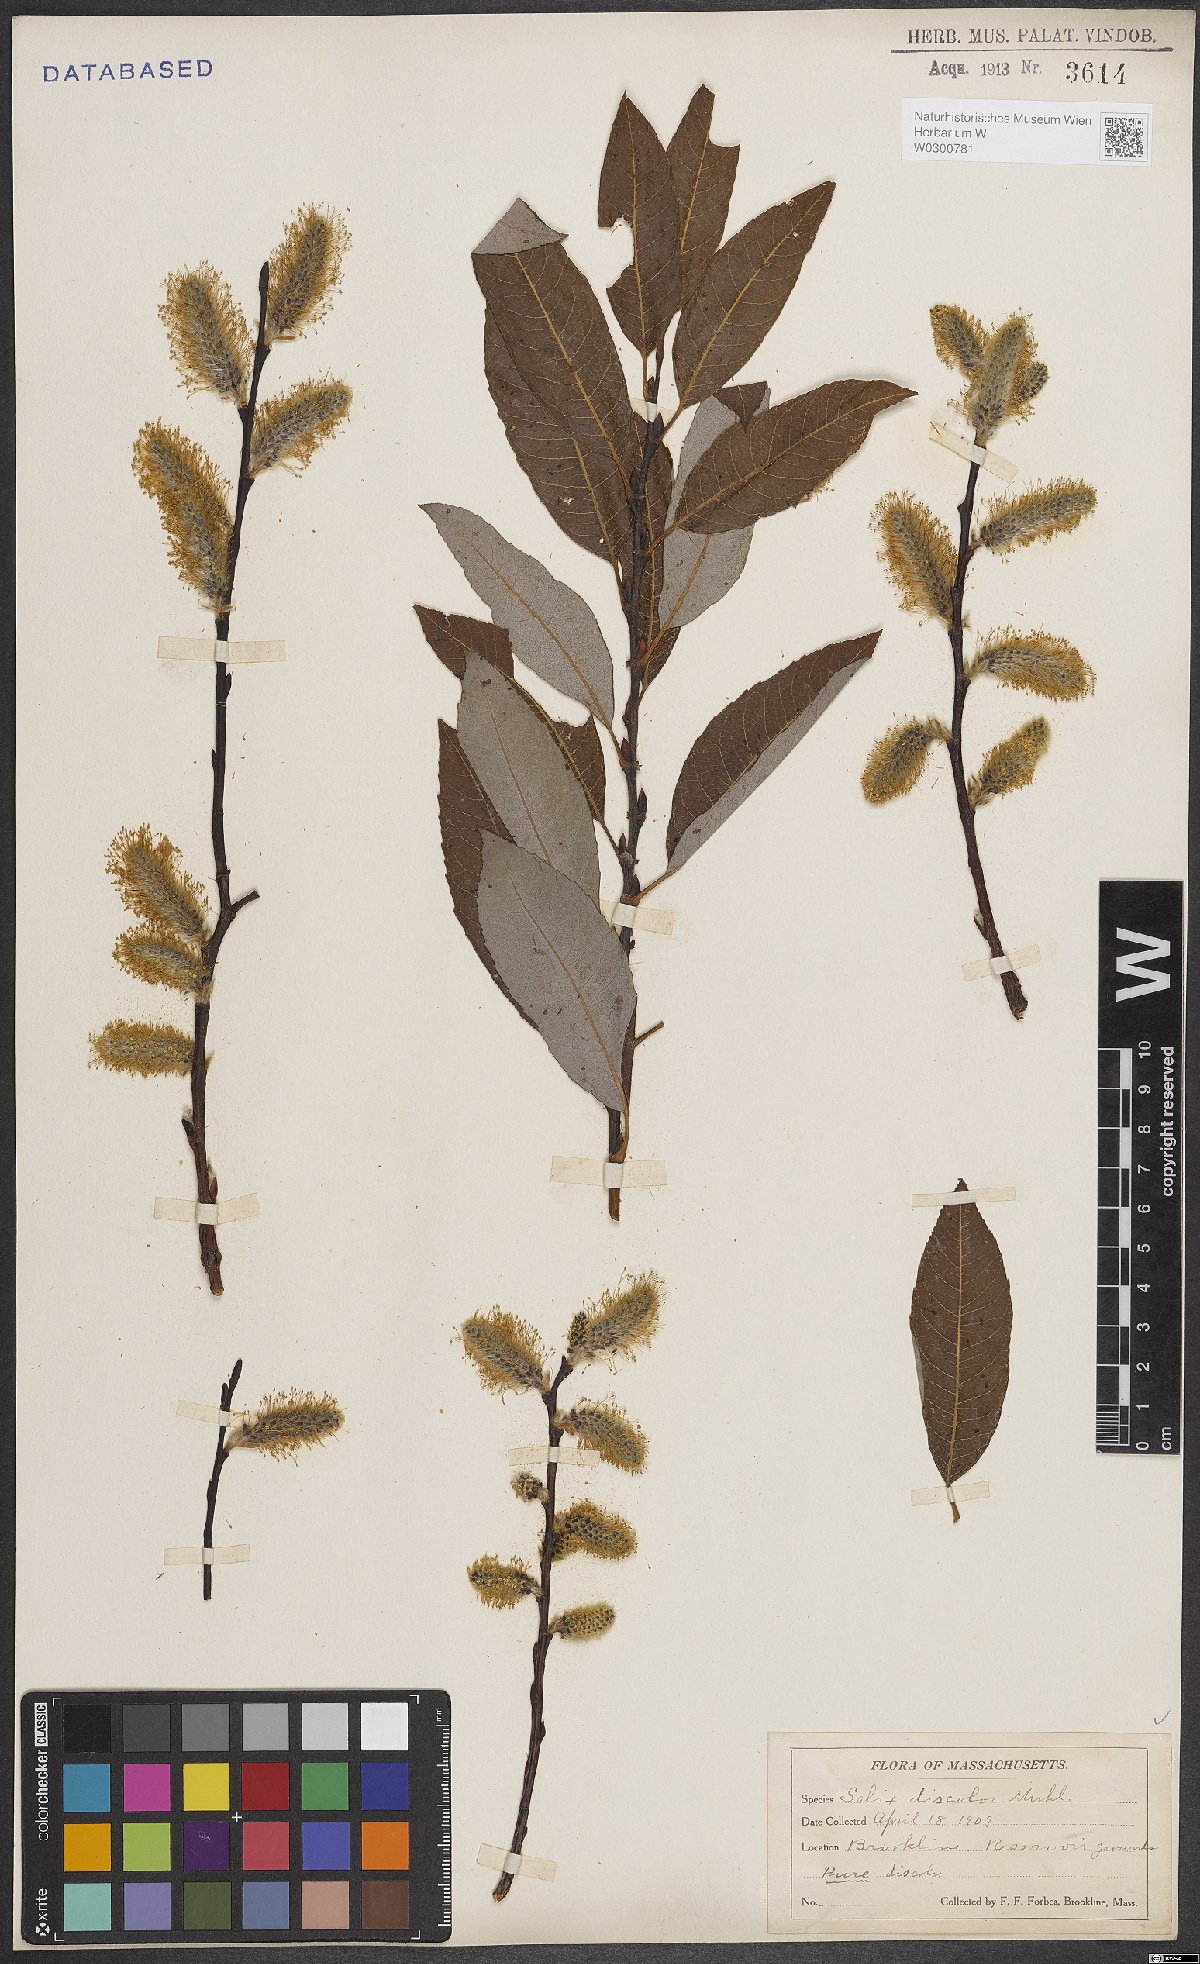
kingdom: Plantae
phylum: Tracheophyta
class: Magnoliopsida
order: Malpighiales
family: Salicaceae
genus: Salix
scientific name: Salix discolor
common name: Glaucous willow
